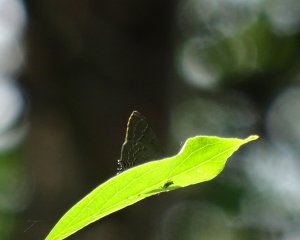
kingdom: Animalia
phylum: Arthropoda
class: Insecta
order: Lepidoptera
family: Lycaenidae
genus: Satyrium
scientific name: Satyrium calanus
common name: Banded Hairstreak
